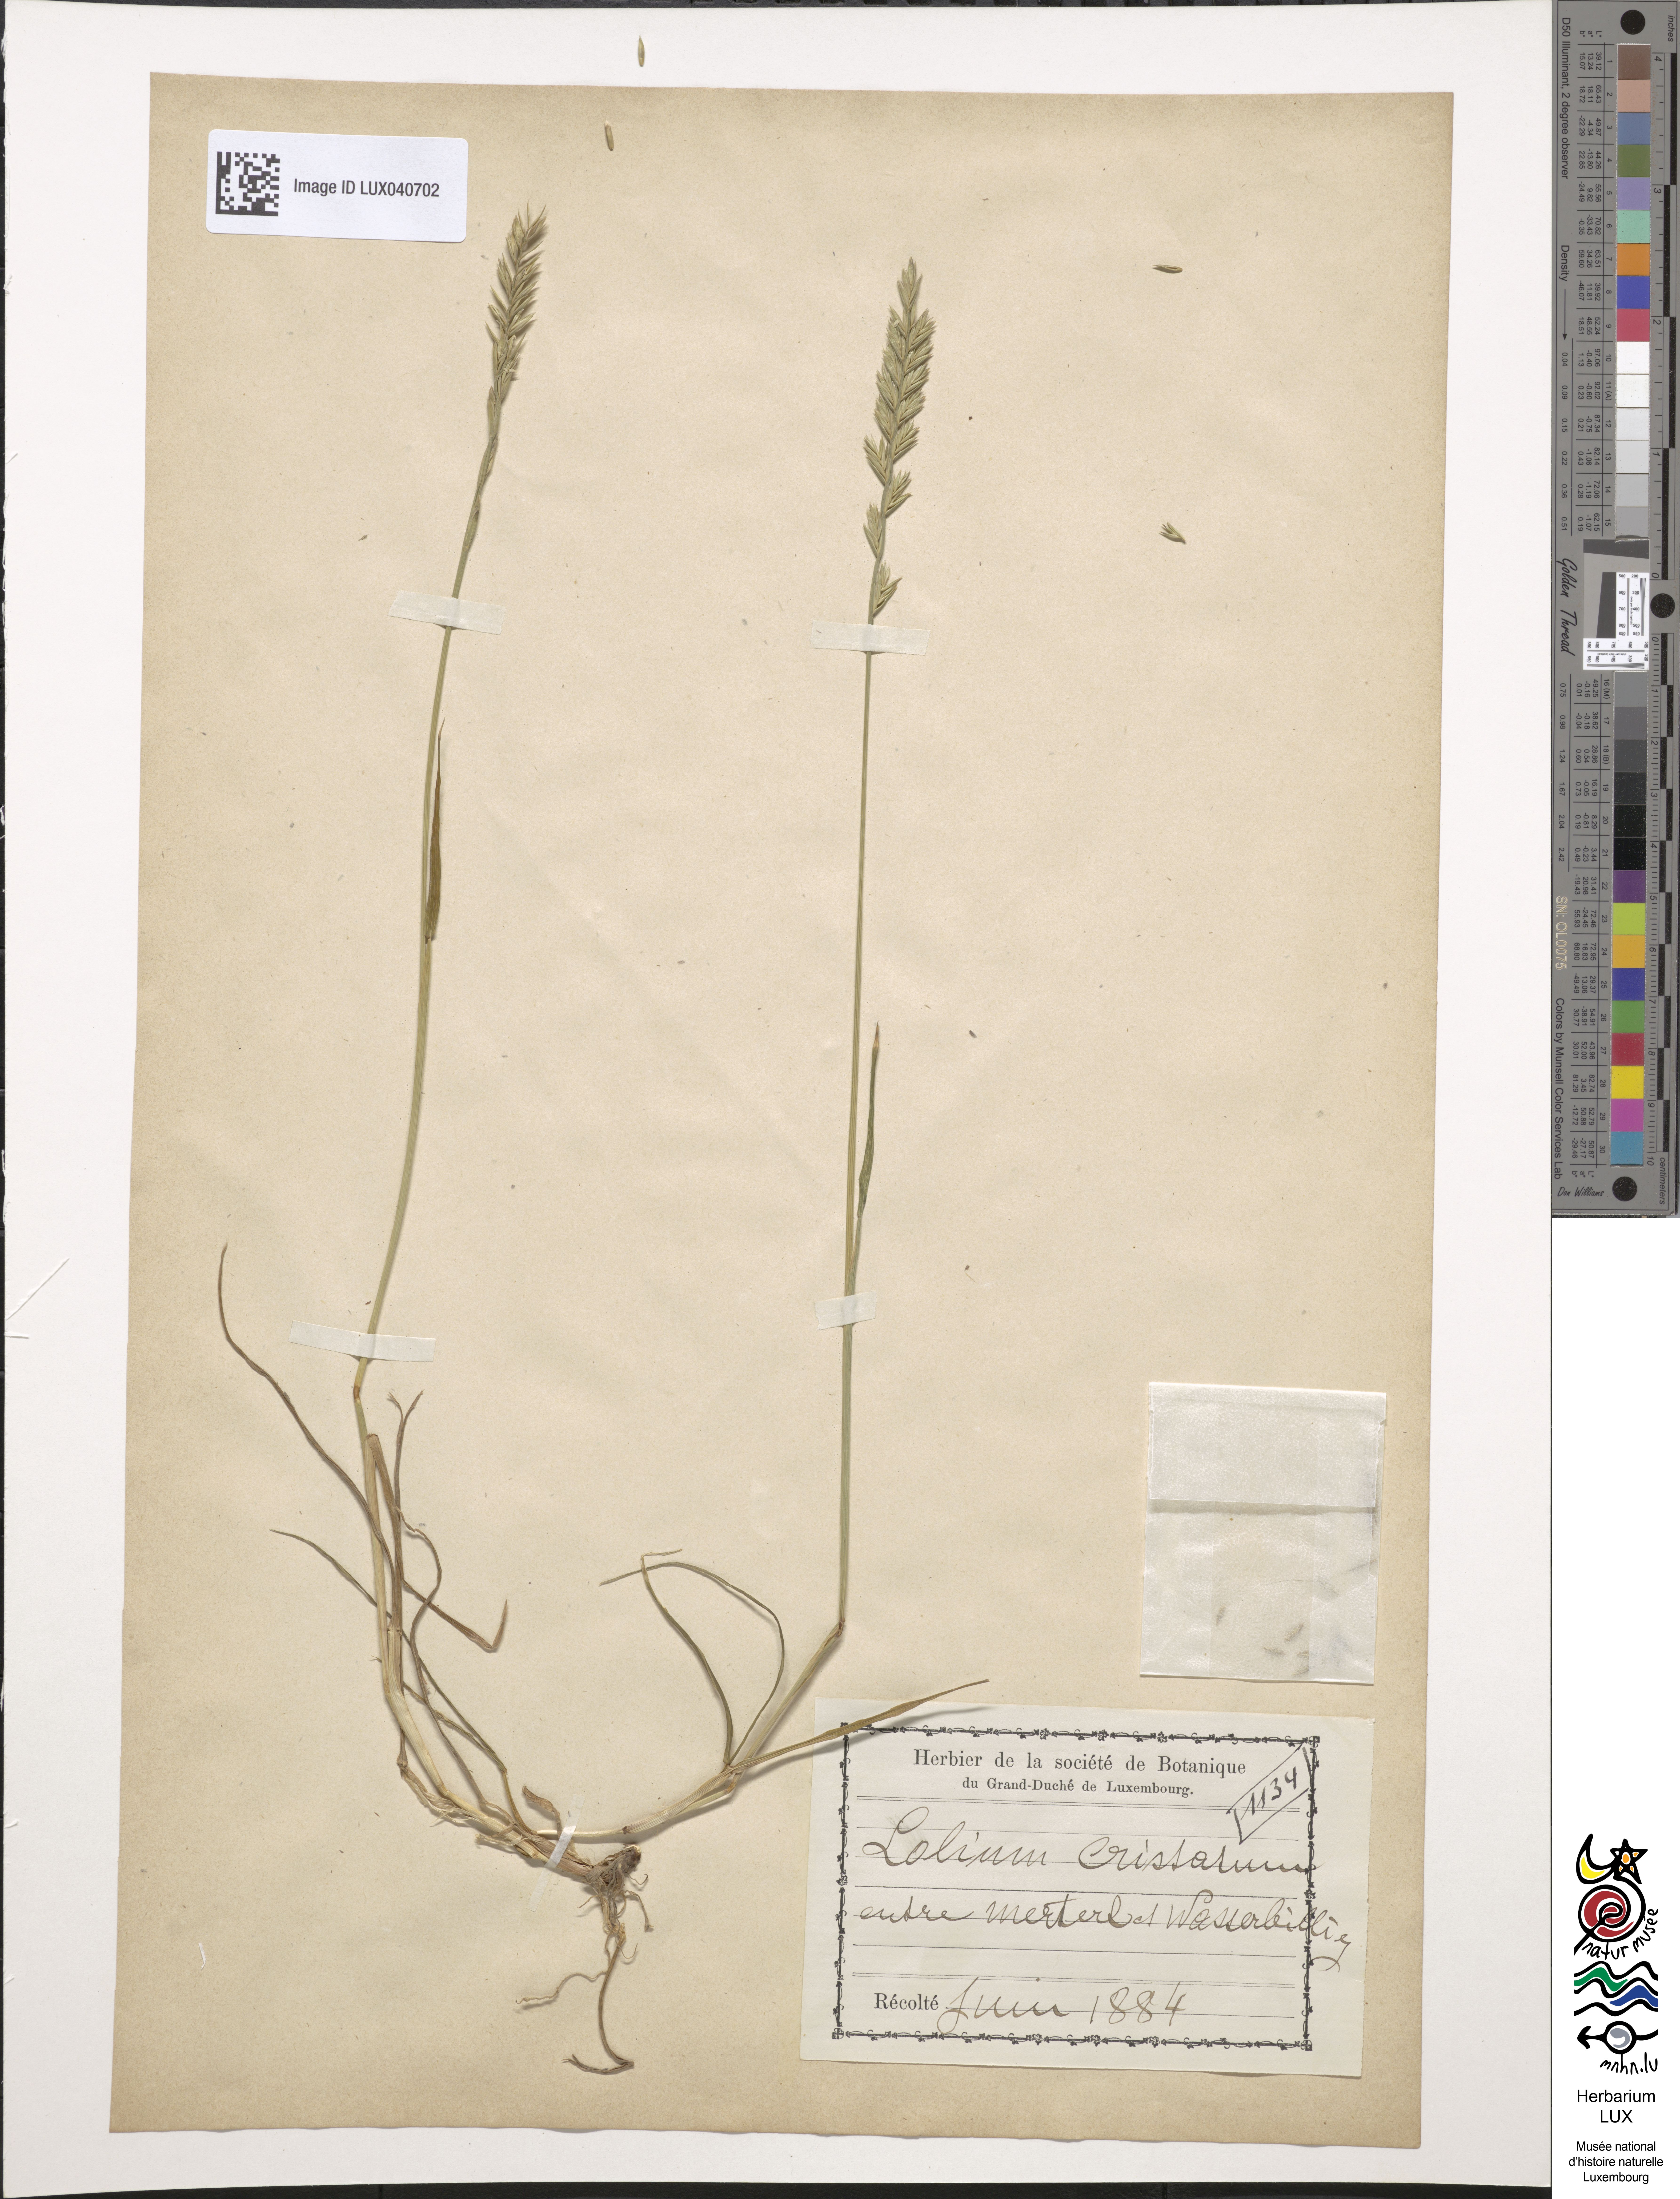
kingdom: Plantae
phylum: Tracheophyta
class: Liliopsida
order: Poales
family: Poaceae
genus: Lolium
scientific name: Lolium perenne
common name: Perennial ryegrass
